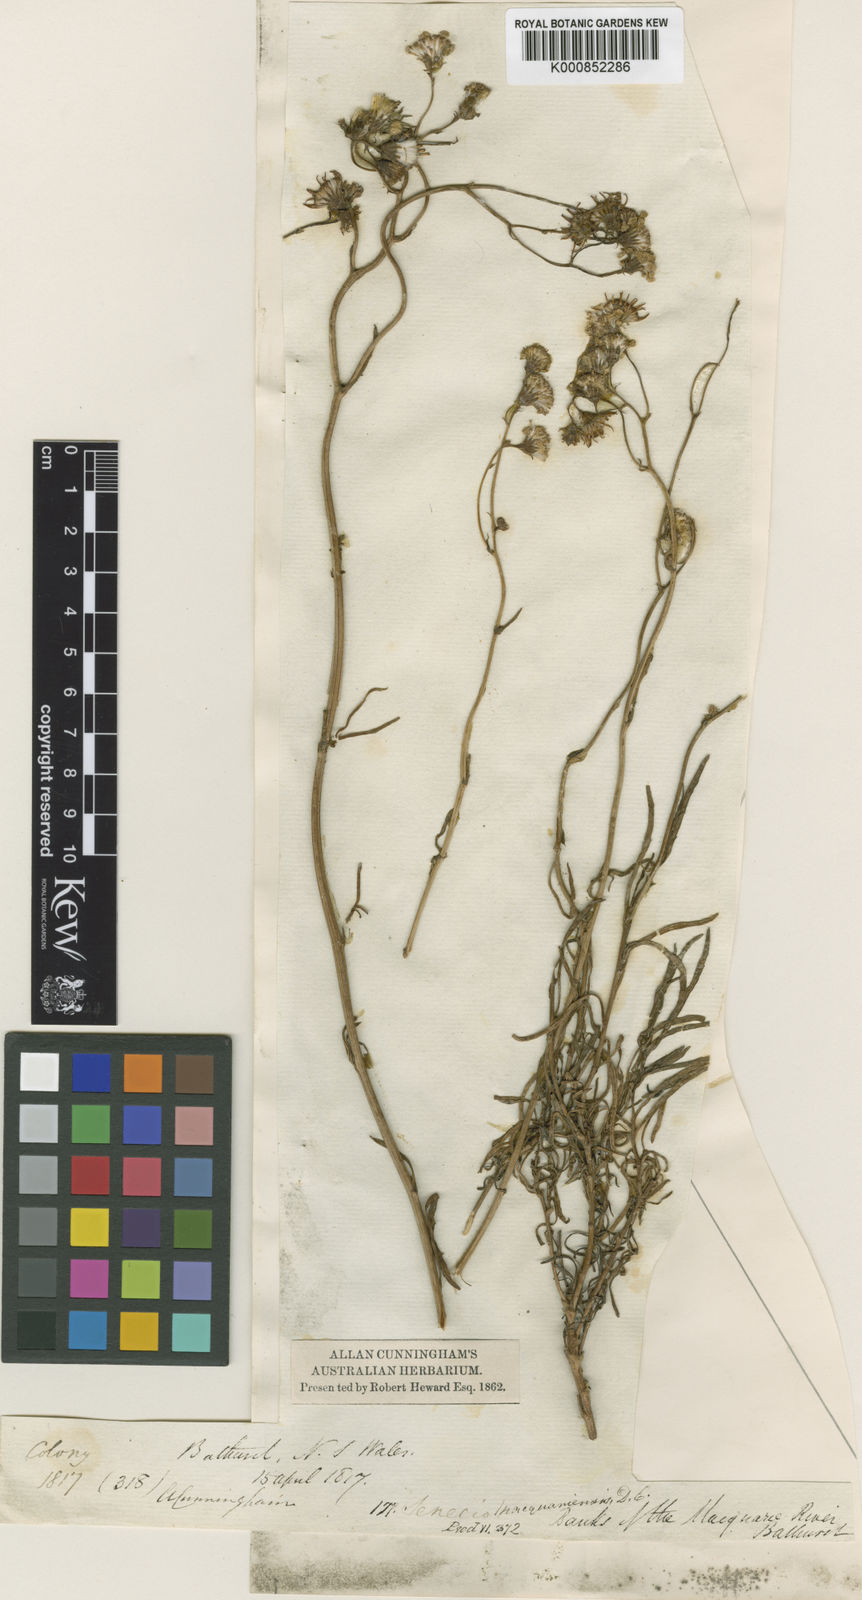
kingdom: Plantae
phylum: Tracheophyta
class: Magnoliopsida
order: Asterales
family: Asteraceae
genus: Senecio
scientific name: Senecio
